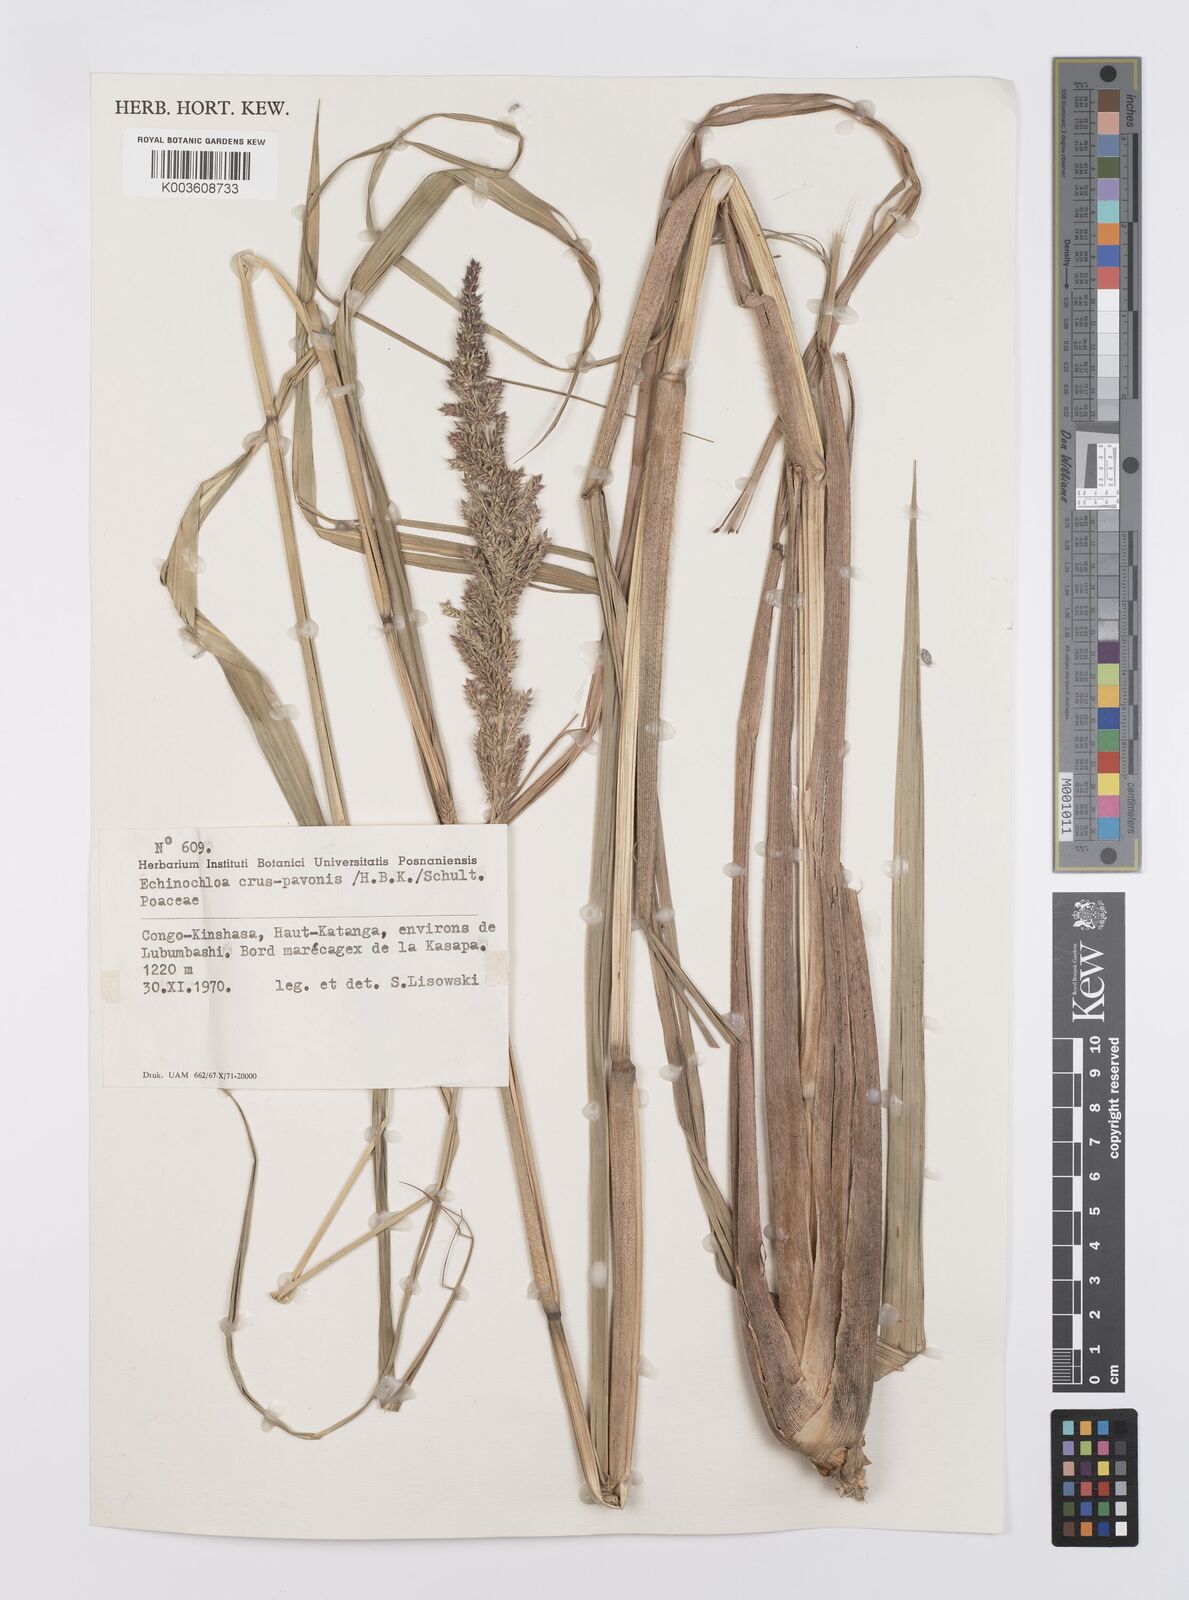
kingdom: Plantae
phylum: Tracheophyta
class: Liliopsida
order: Poales
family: Poaceae
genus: Echinochloa
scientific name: Echinochloa pyramidalis
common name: Antelope grass
